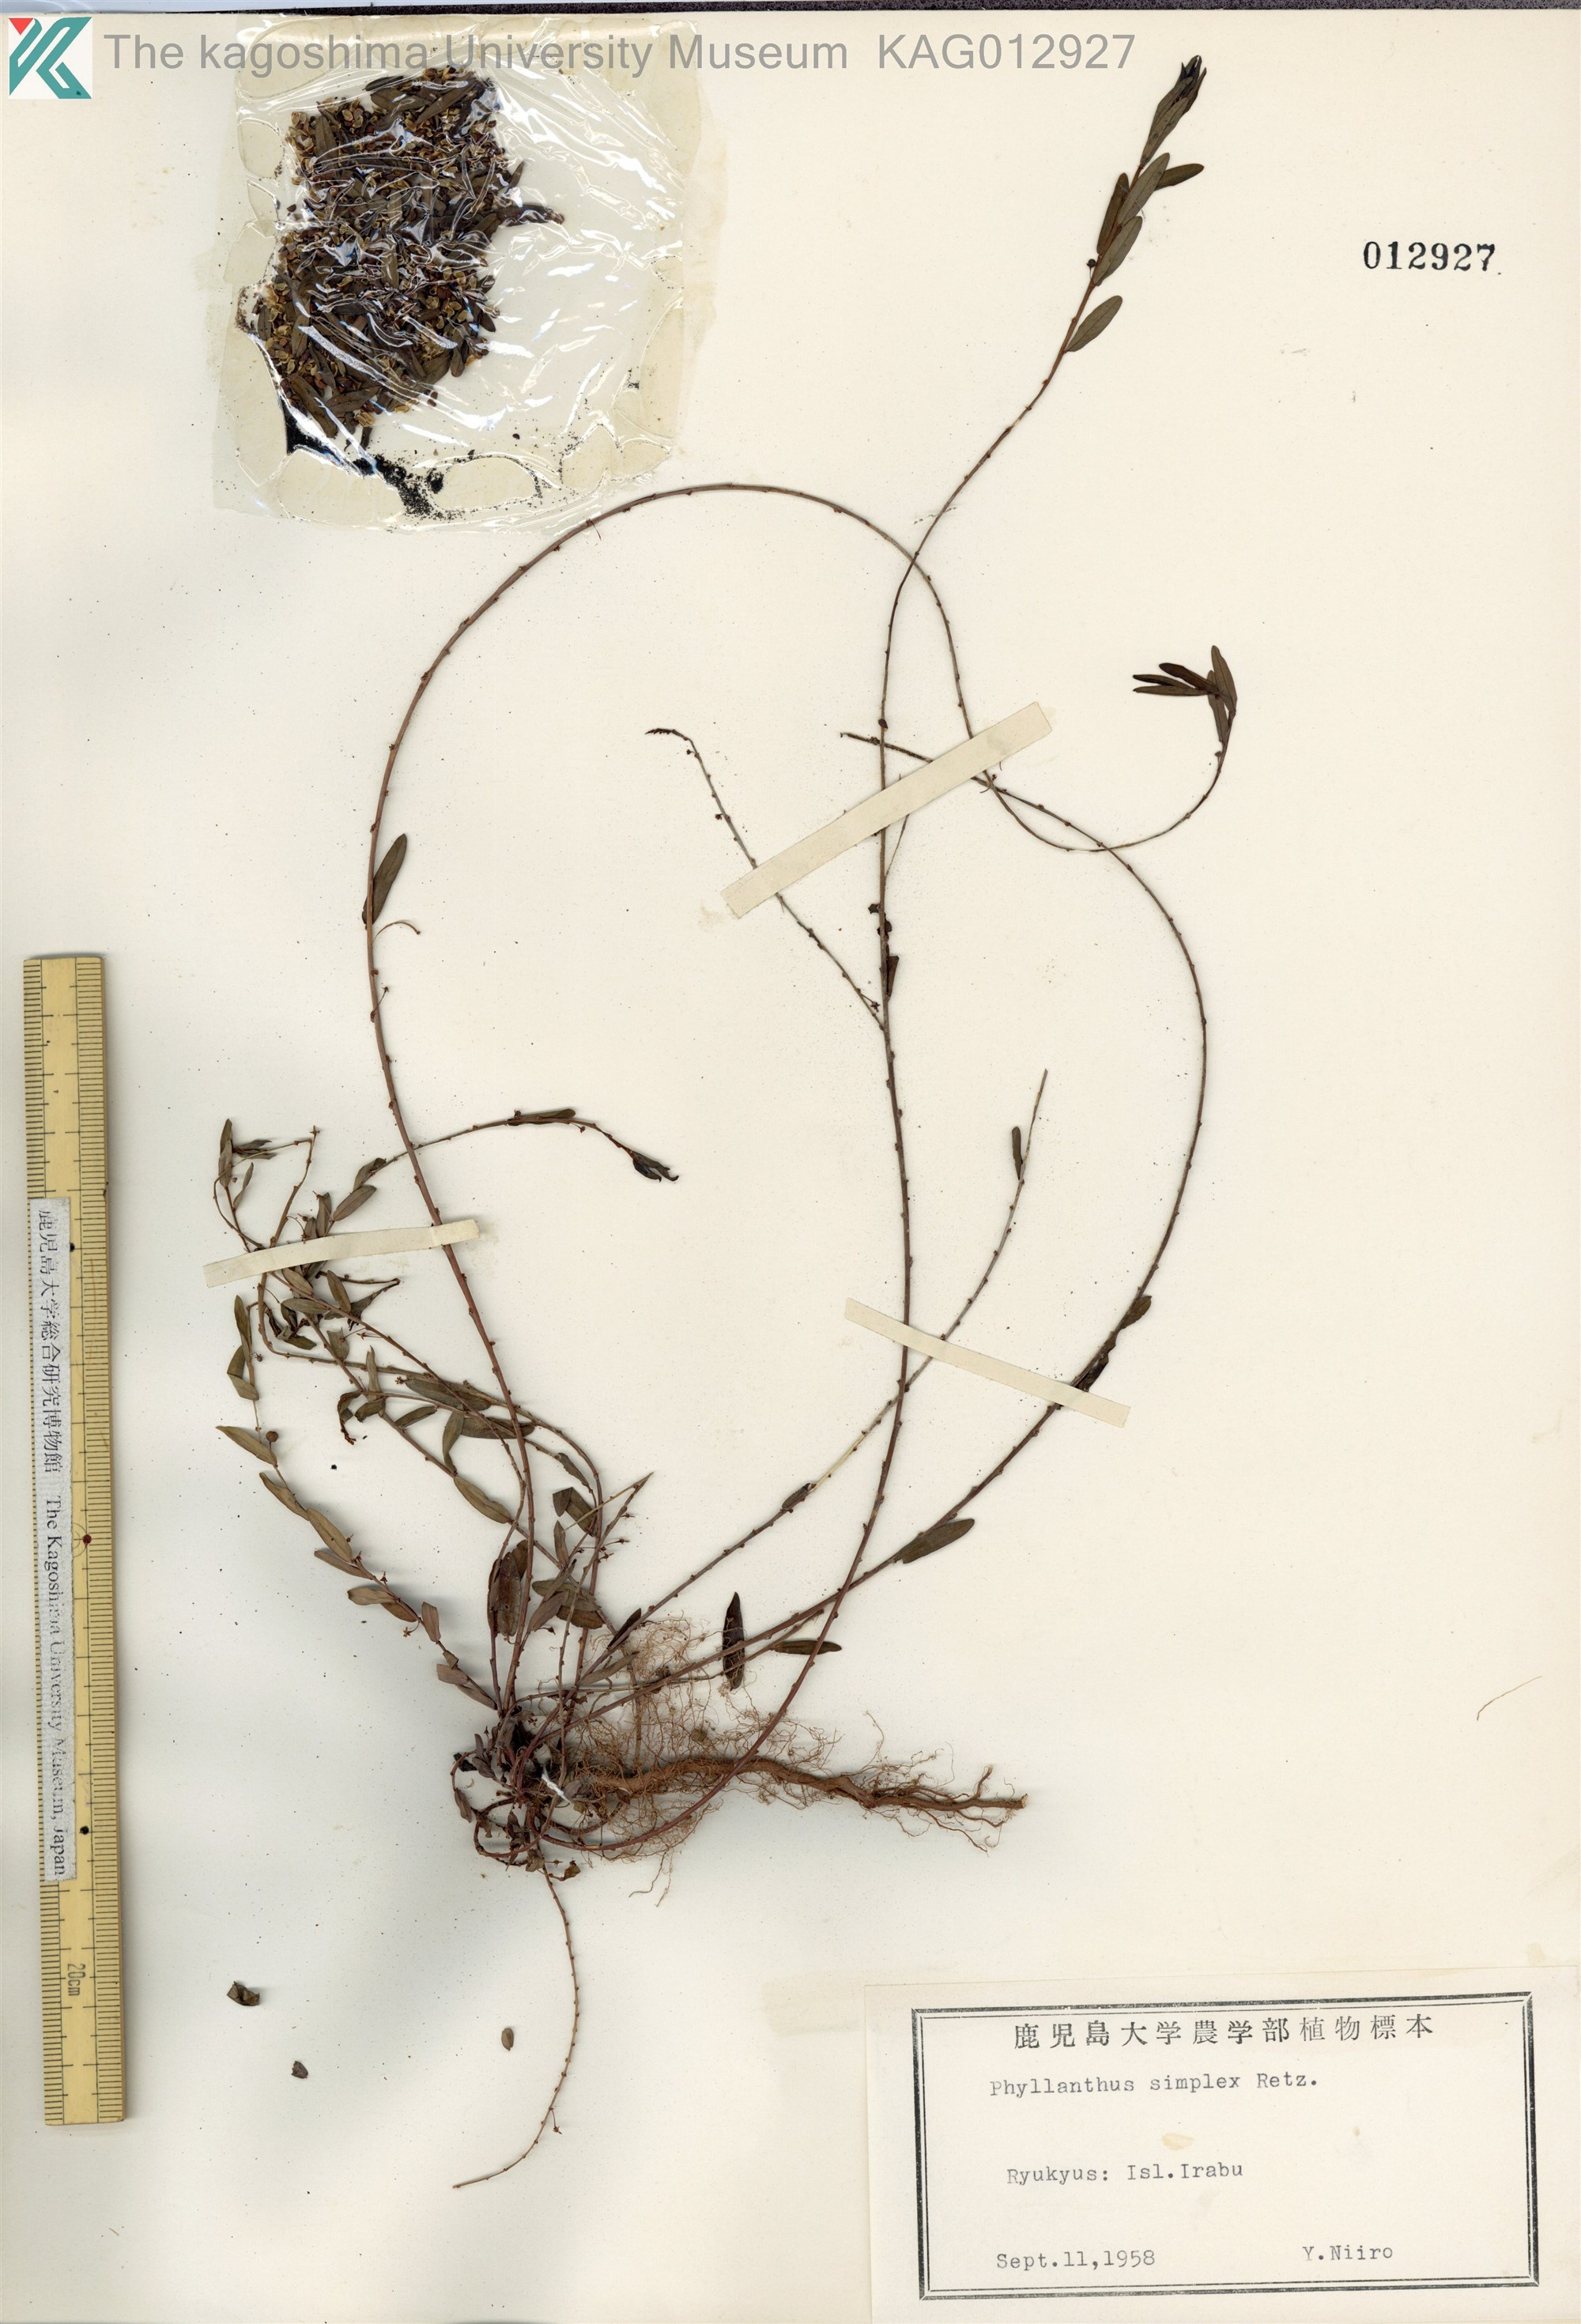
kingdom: Plantae
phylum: Tracheophyta
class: Magnoliopsida
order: Malpighiales
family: Phyllanthaceae
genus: Phyllanthus
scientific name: Phyllanthus virgatus
